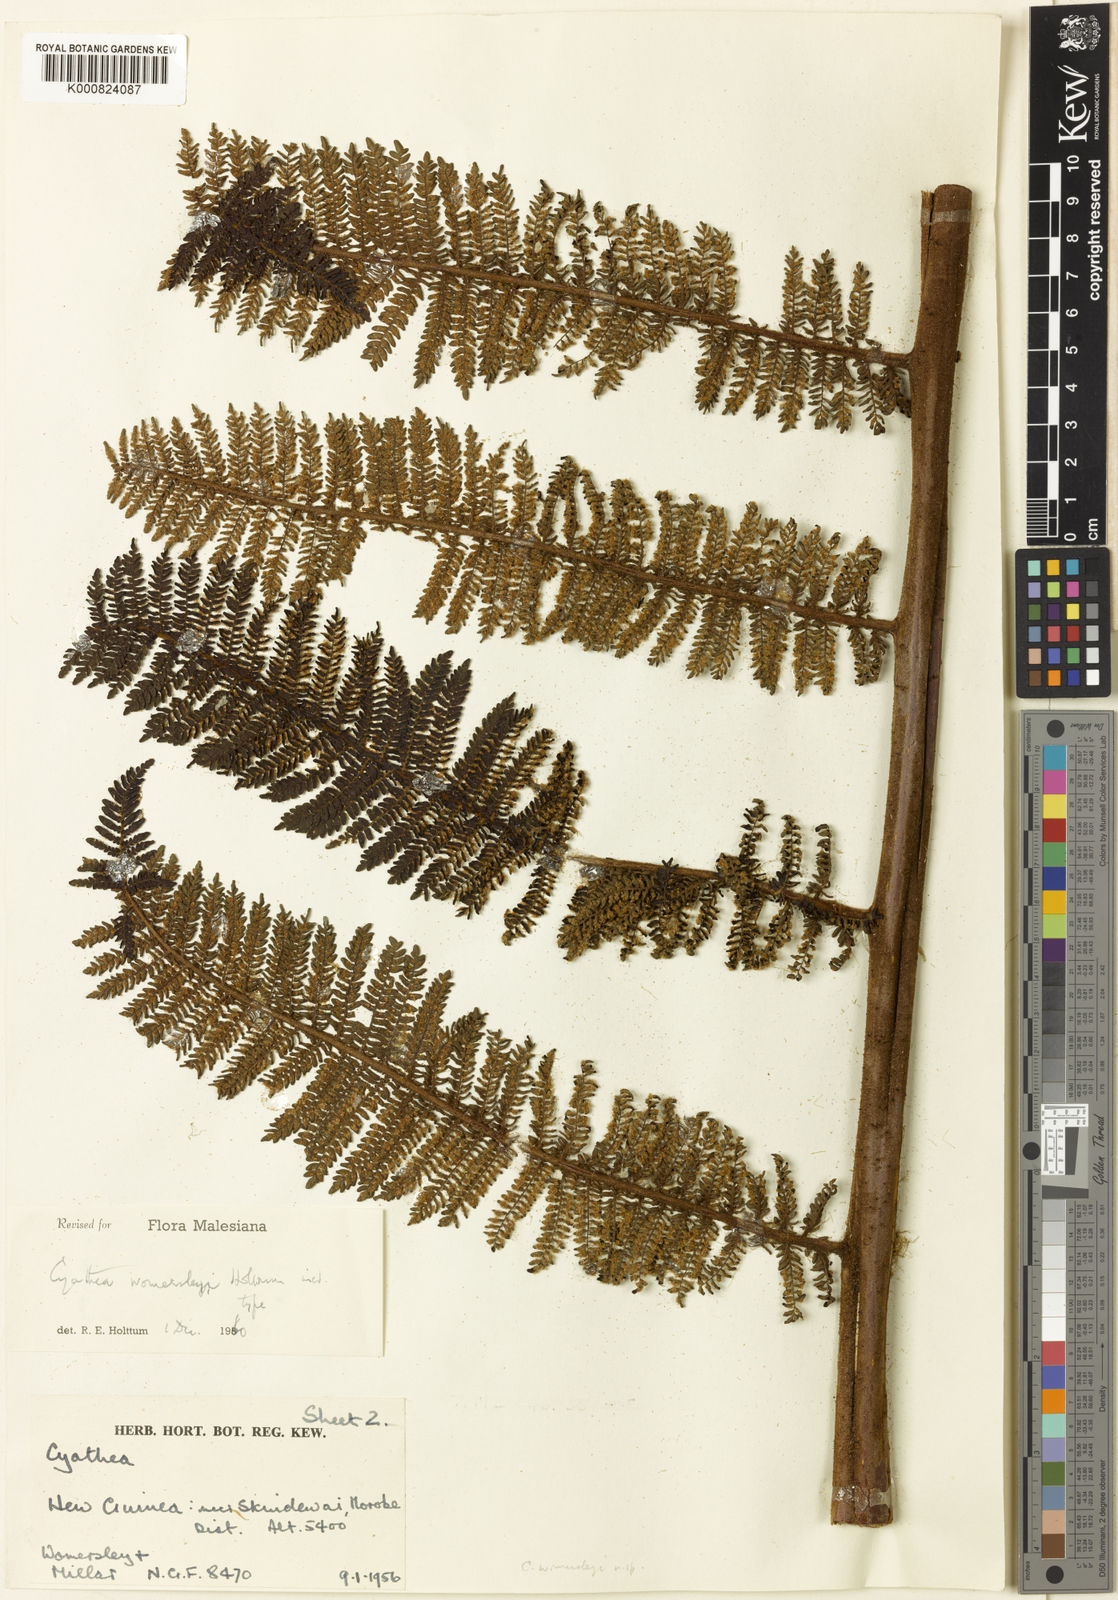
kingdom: Plantae
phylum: Tracheophyta
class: Polypodiopsida
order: Cyatheales
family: Cyatheaceae
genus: Sphaeropteris
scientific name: Sphaeropteris womersleyi
